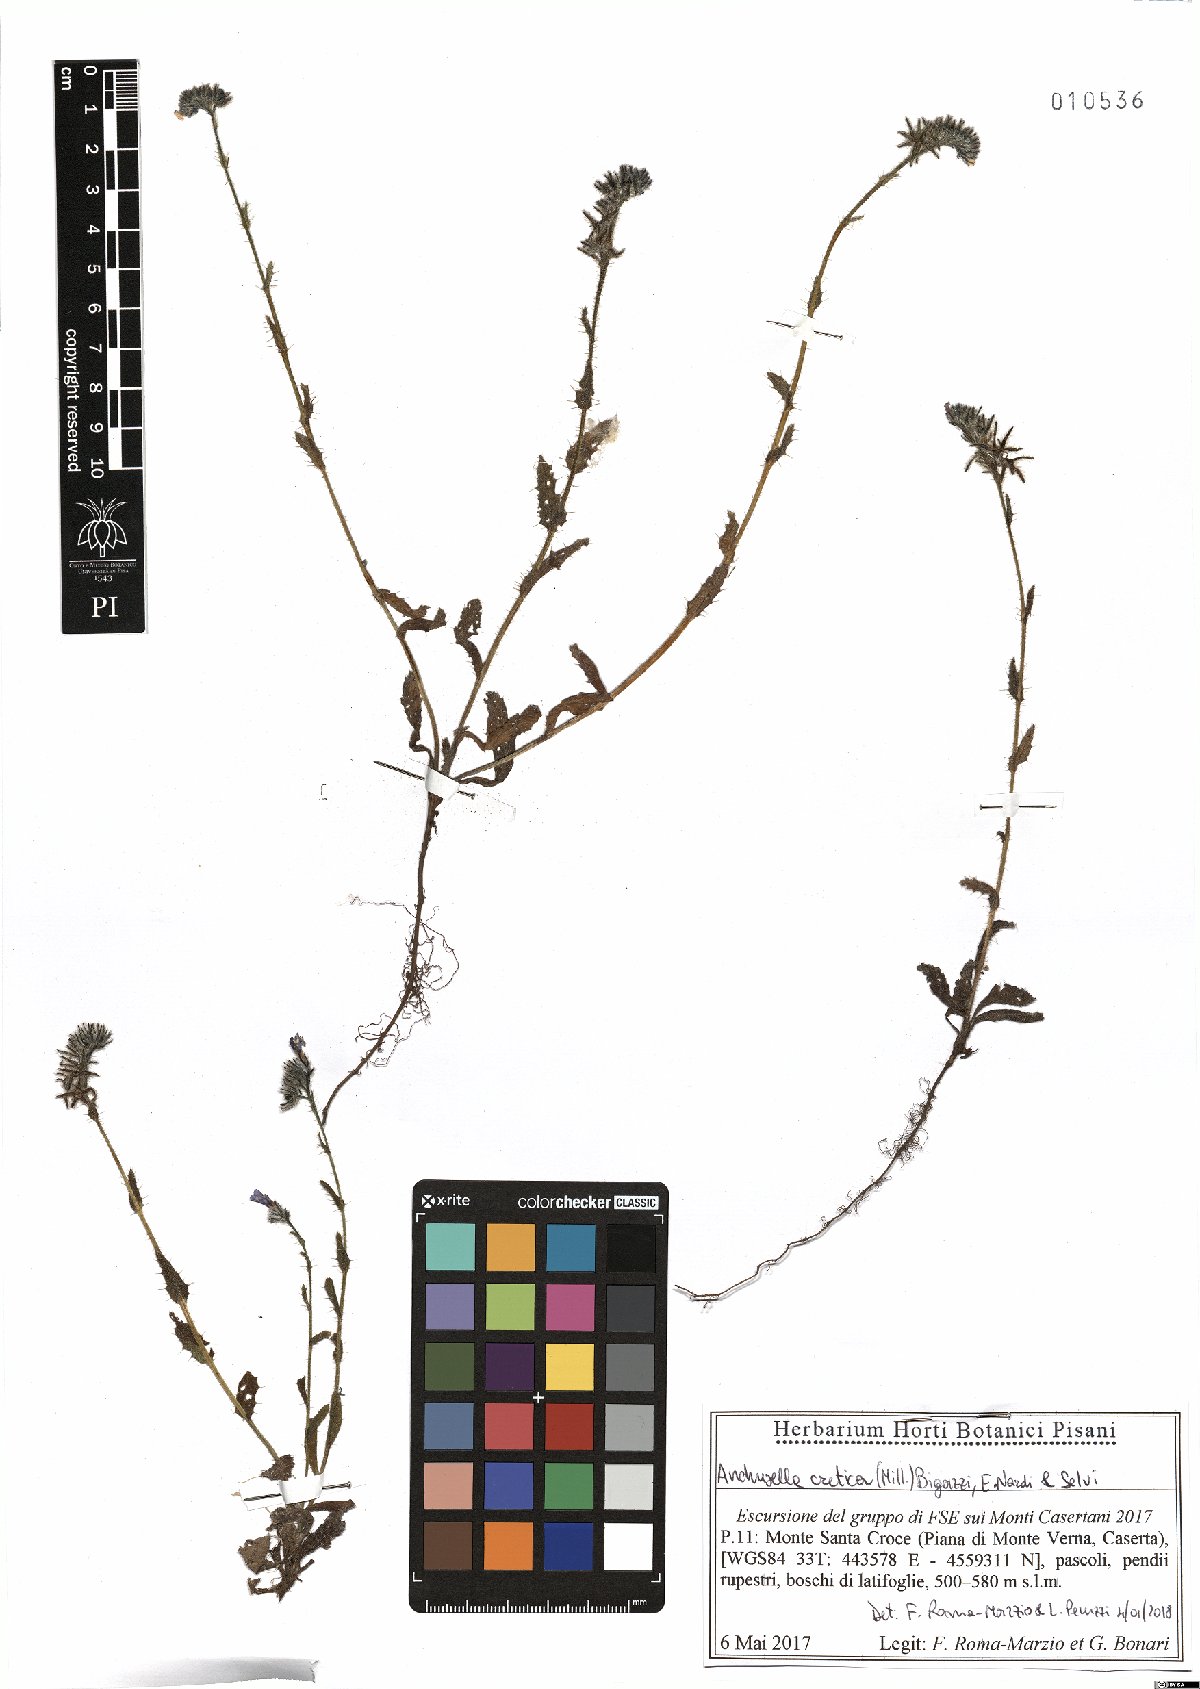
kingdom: Plantae
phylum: Tracheophyta
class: Magnoliopsida
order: Boraginales
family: Boraginaceae
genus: Anchusella
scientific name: Anchusella cretica
